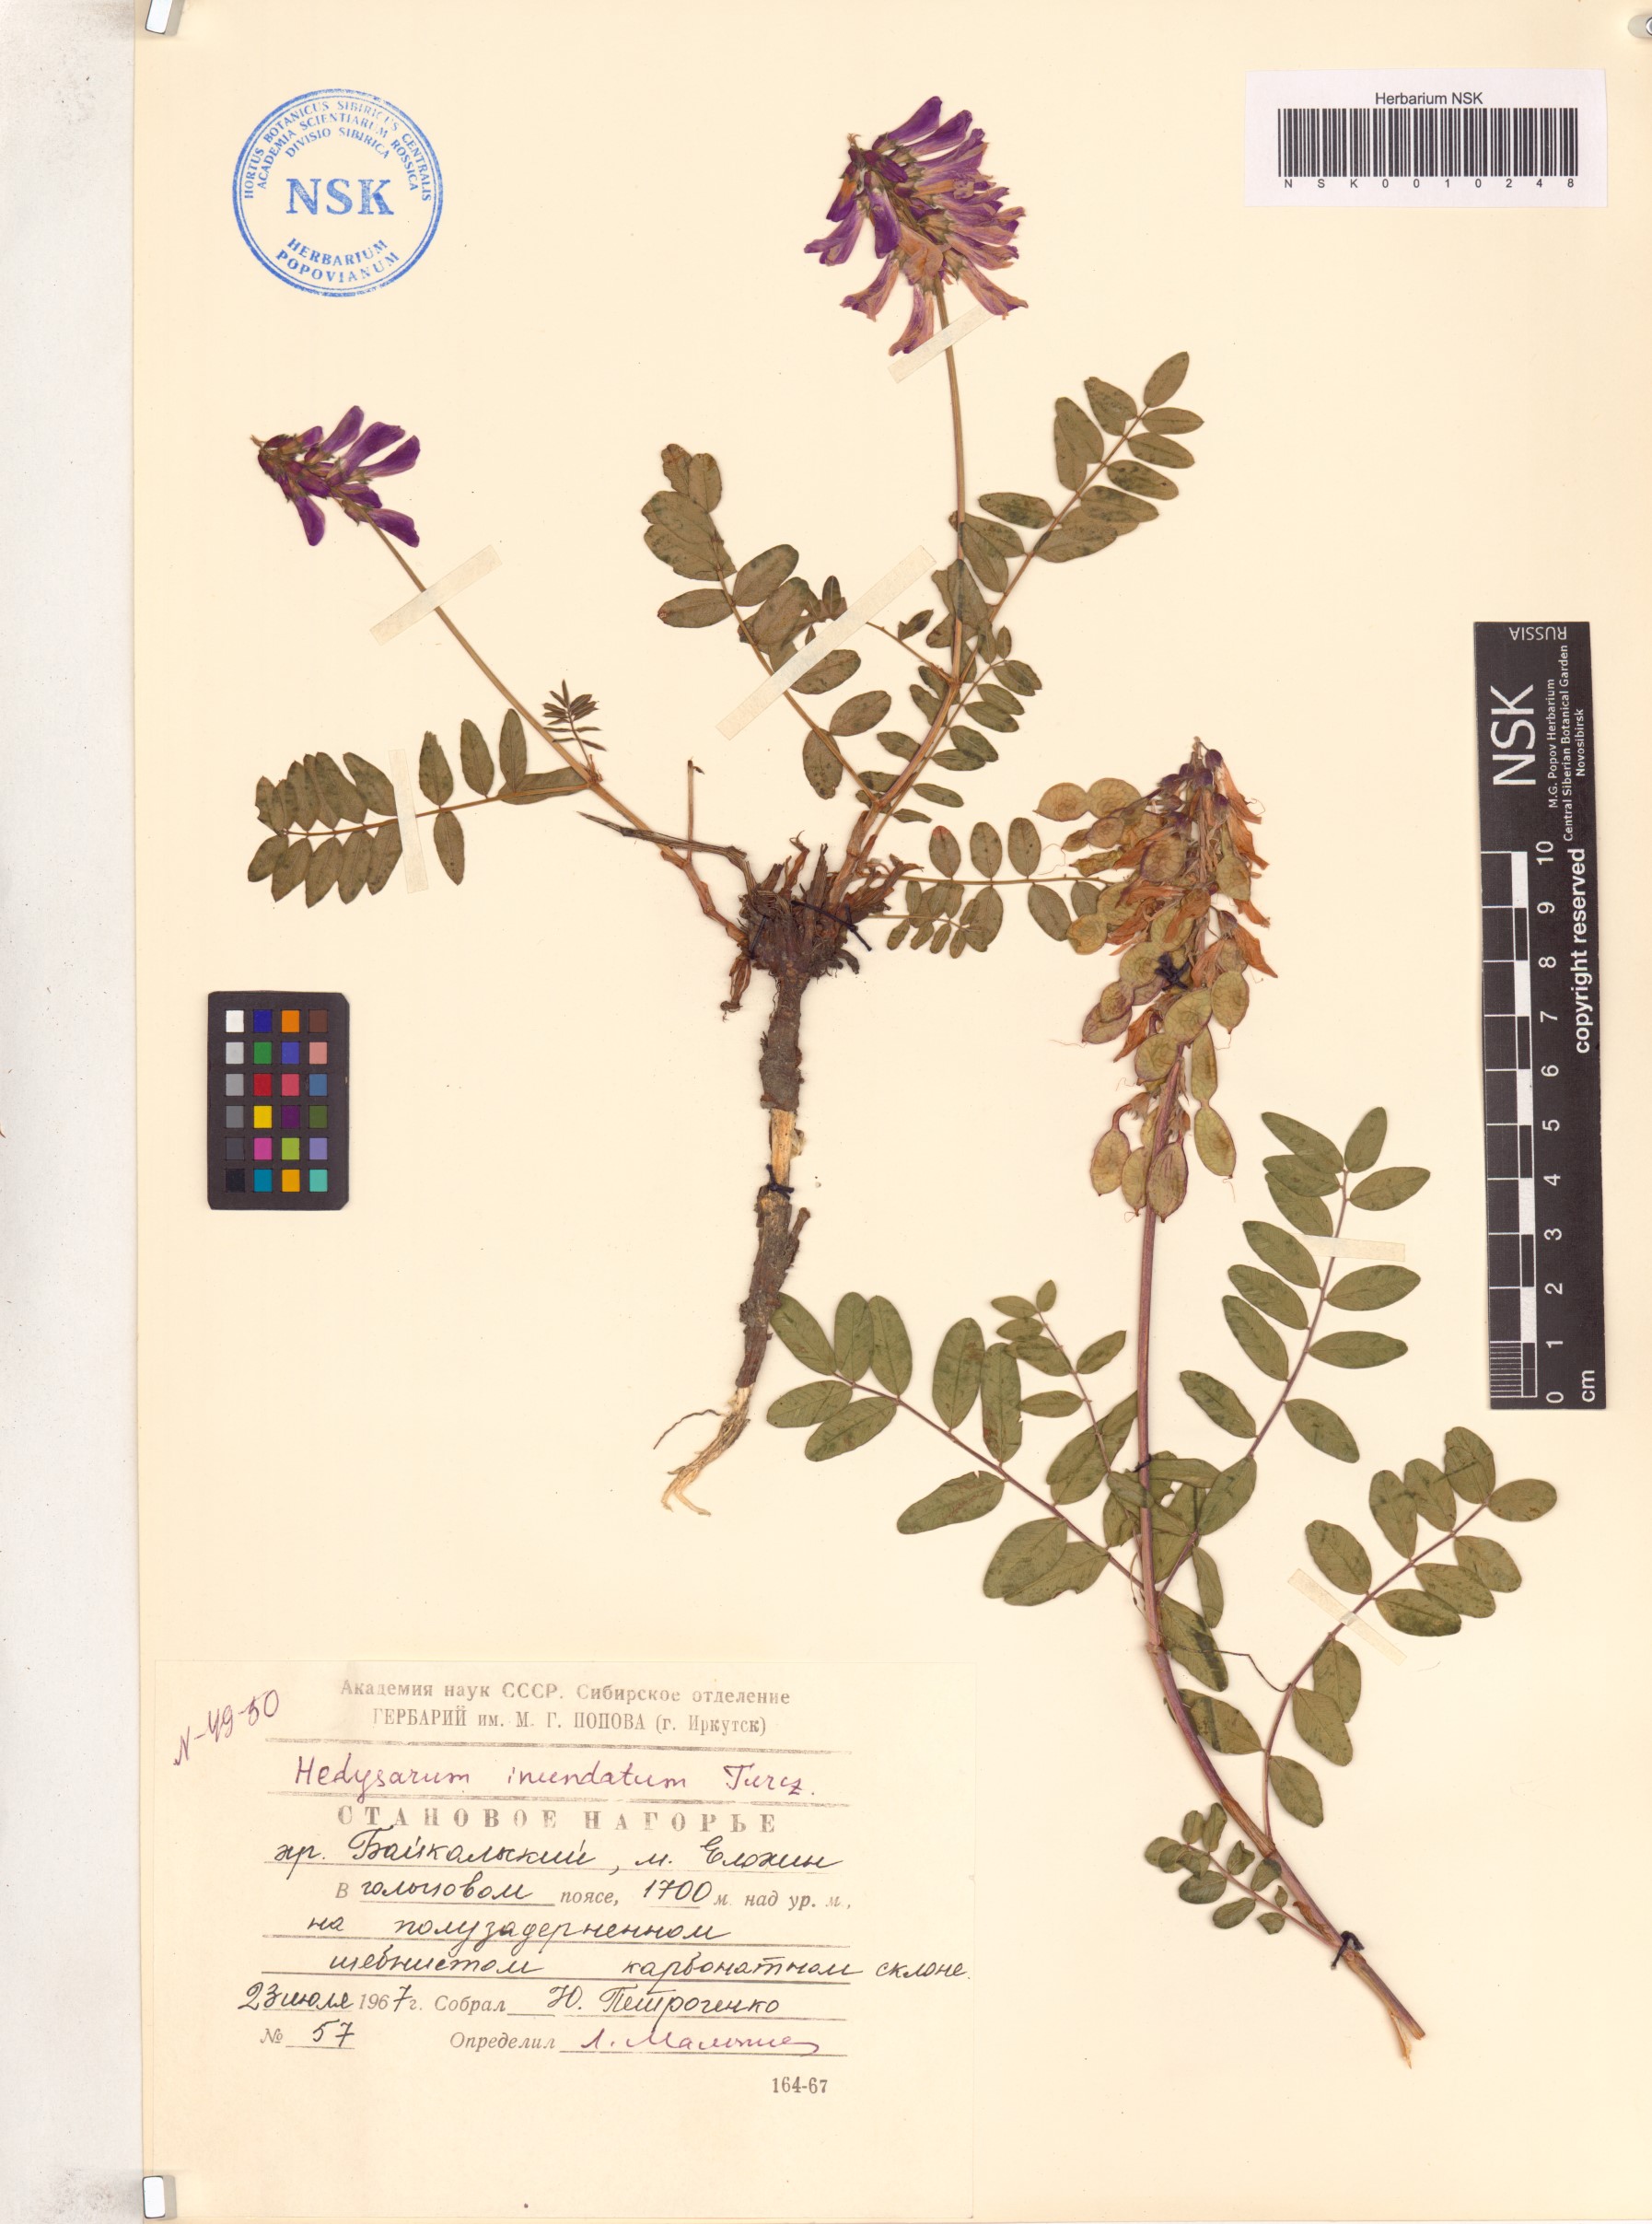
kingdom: Plantae
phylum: Tracheophyta
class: Magnoliopsida
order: Fabales
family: Fabaceae
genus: Hedysarum
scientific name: Hedysarum inundatum
